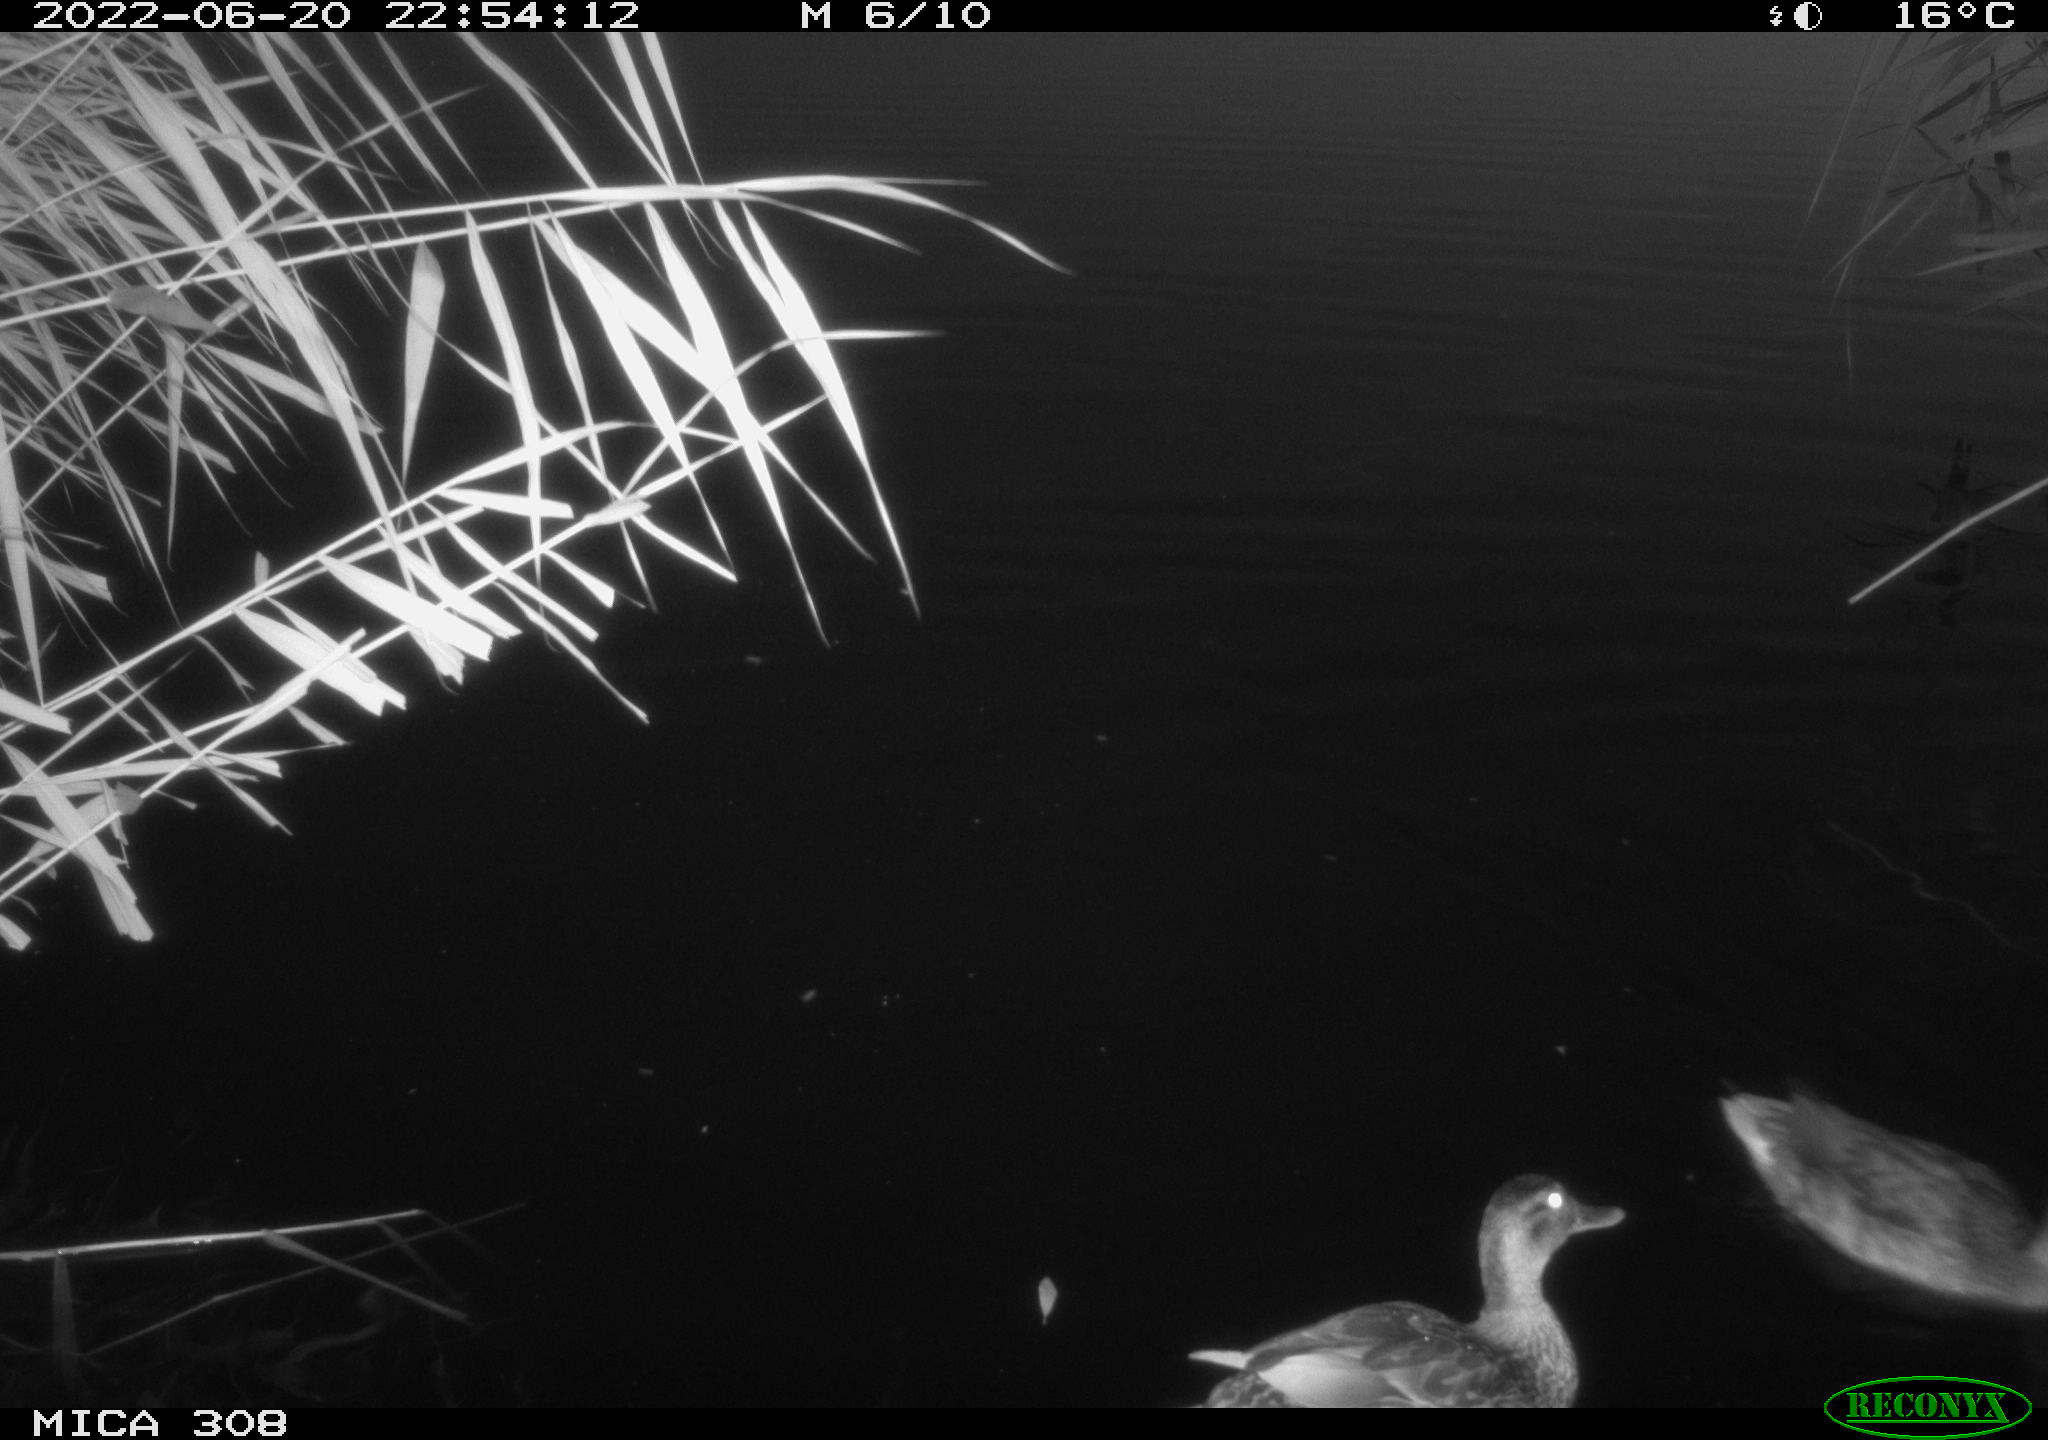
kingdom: Animalia
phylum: Chordata
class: Aves
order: Anseriformes
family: Anatidae
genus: Mareca
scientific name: Mareca strepera
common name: Gadwall
